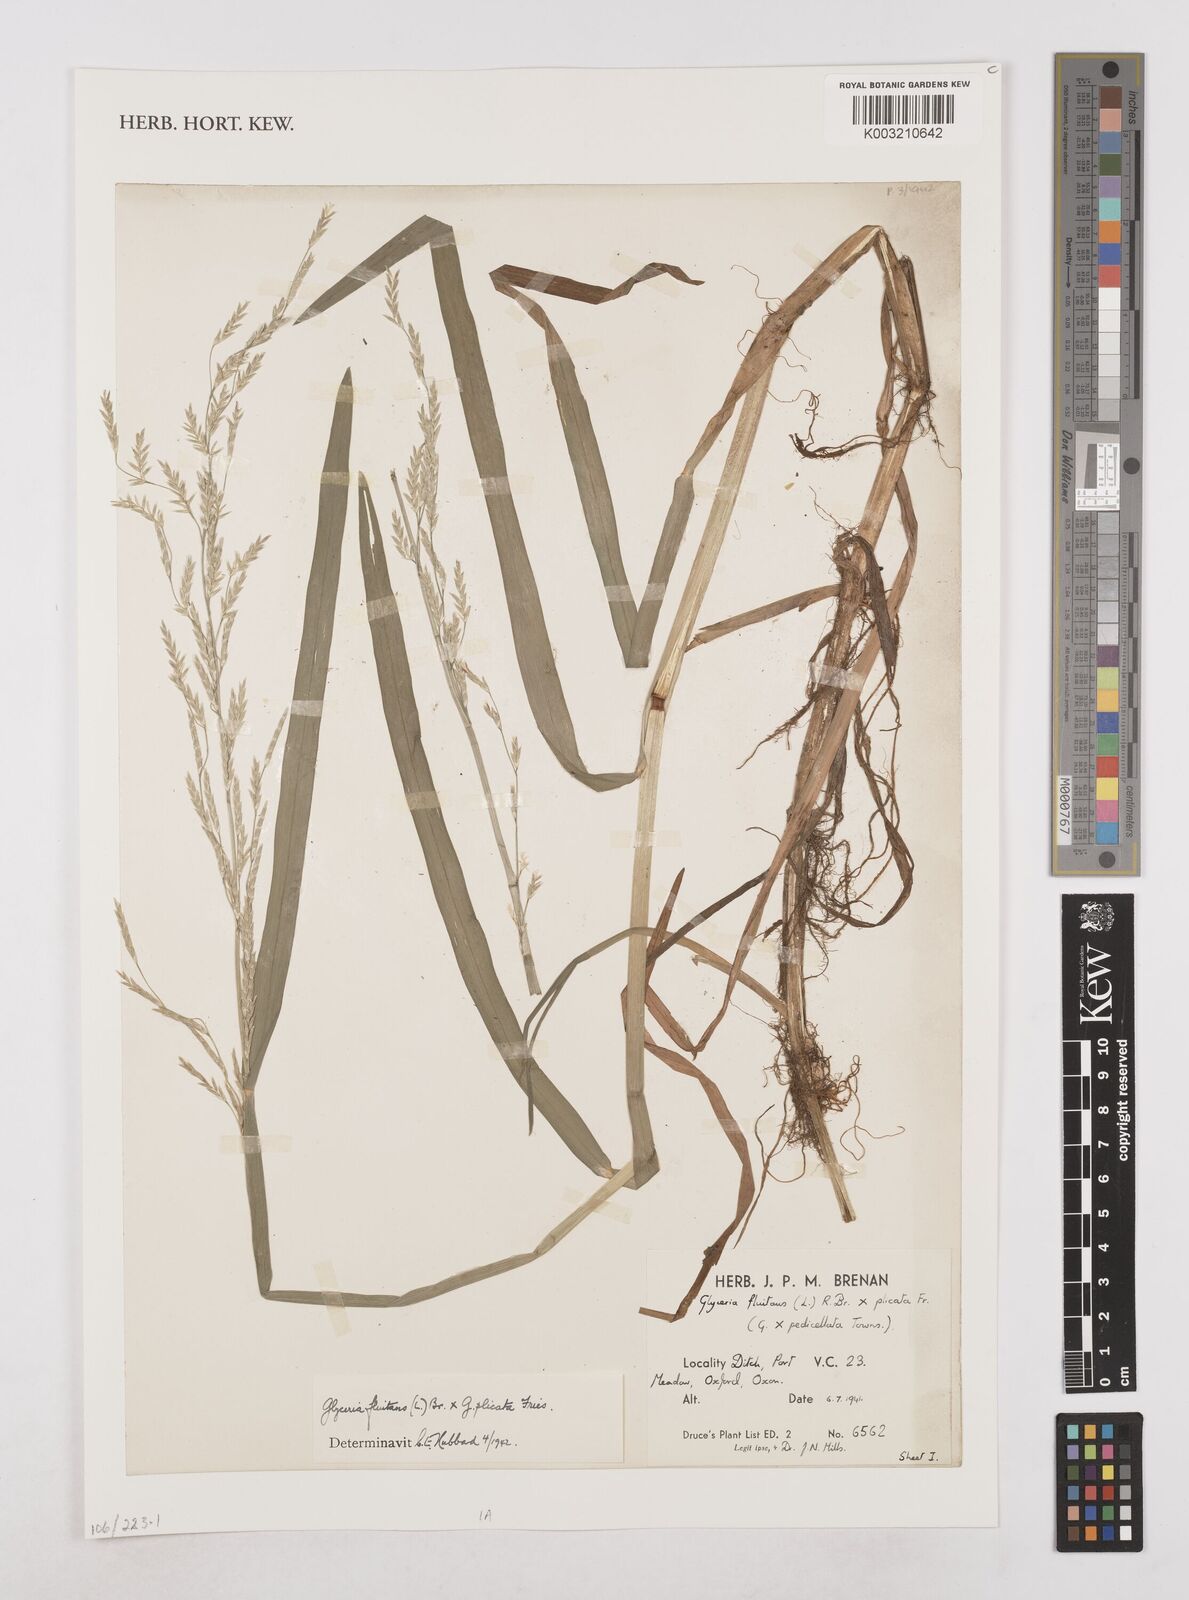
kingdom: Plantae
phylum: Tracheophyta
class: Liliopsida
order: Poales
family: Poaceae
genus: Glyceria
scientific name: Glyceria fluitans
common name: Floating sweet-grass
